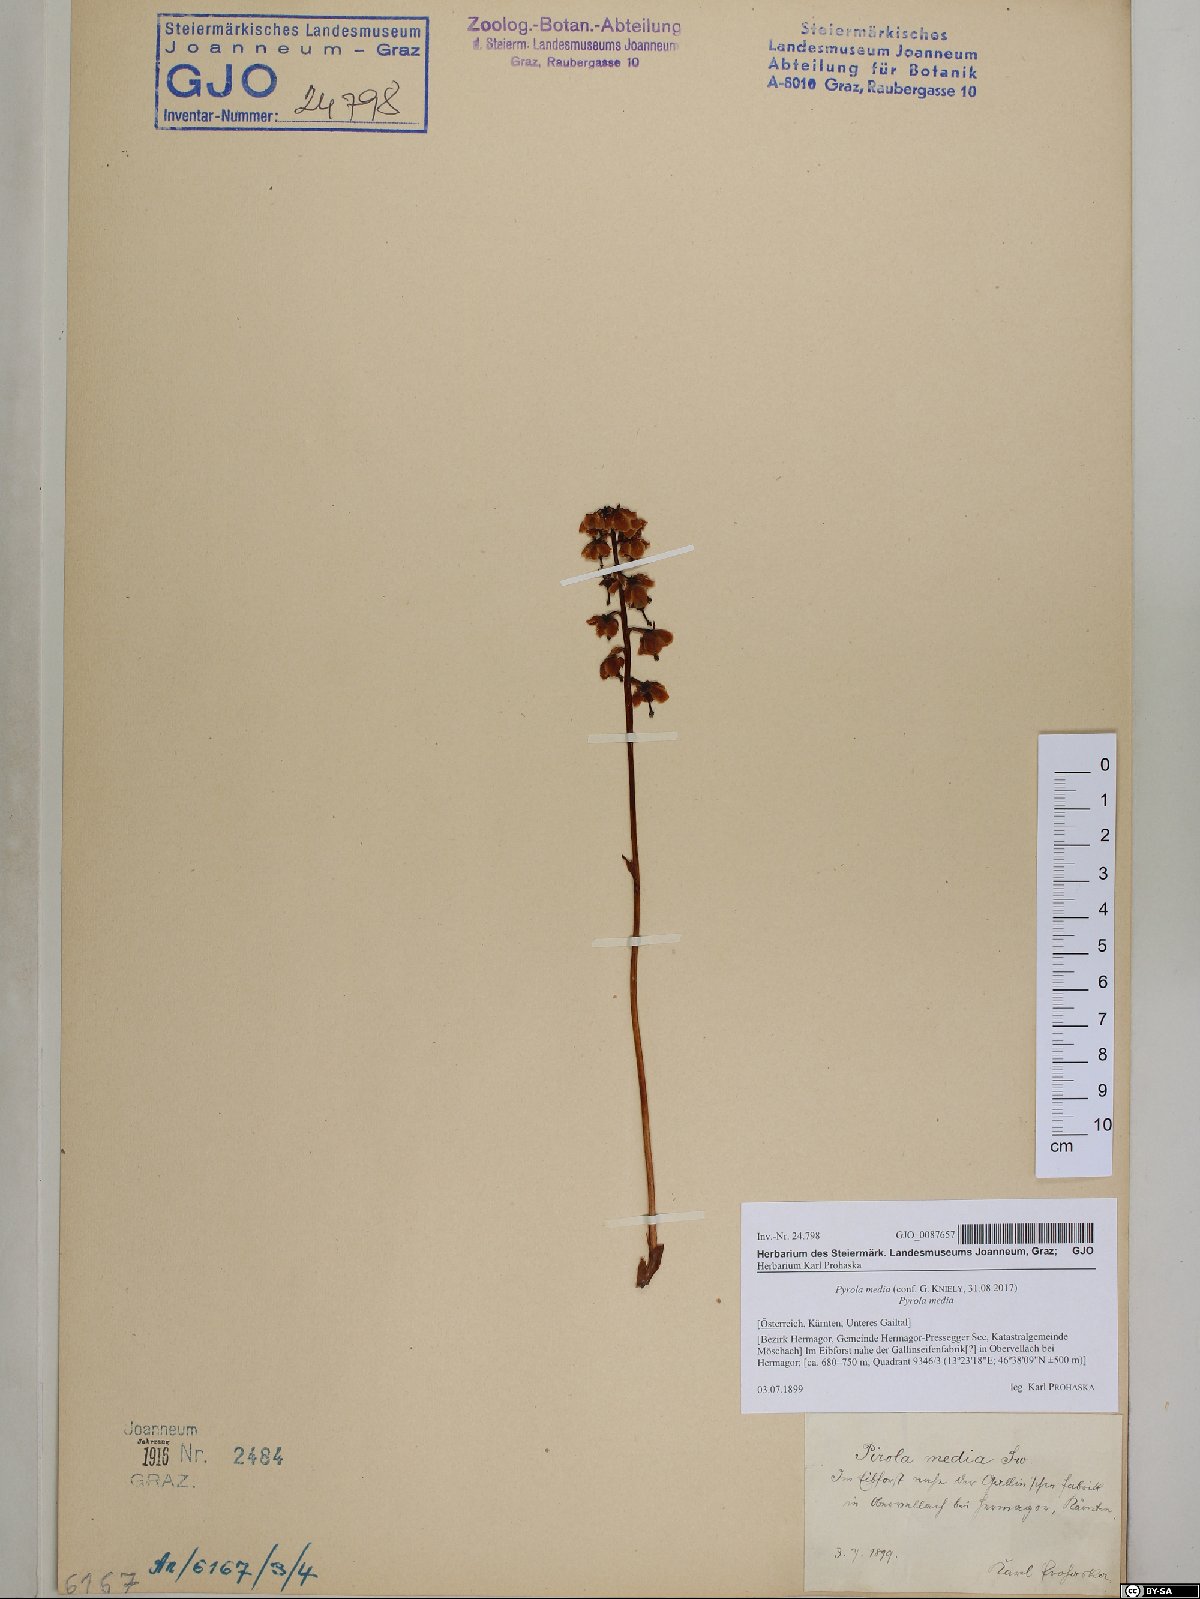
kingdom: Plantae
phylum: Tracheophyta
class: Magnoliopsida
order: Ericales
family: Ericaceae
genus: Pyrola
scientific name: Pyrola media
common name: Intermediate wintergreen
